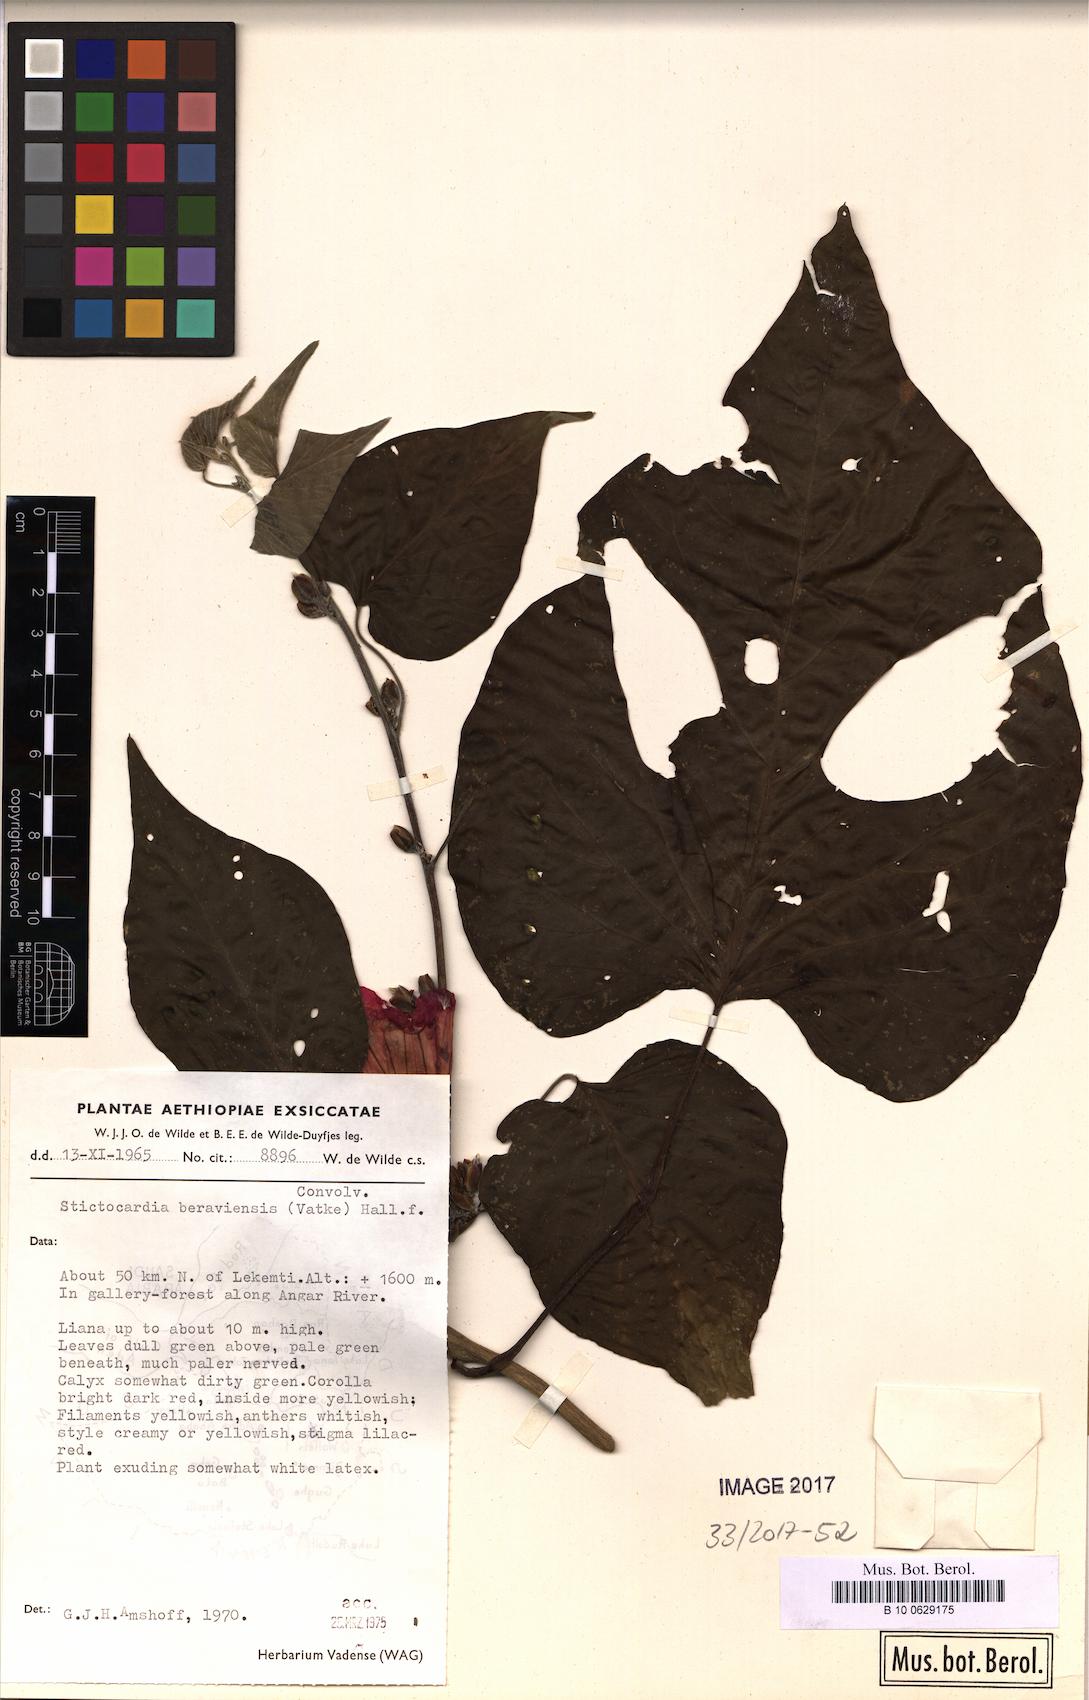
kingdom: Plantae
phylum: Tracheophyta
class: Magnoliopsida
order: Solanales
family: Convolvulaceae
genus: Stictocardia
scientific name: Stictocardia beraviensis
